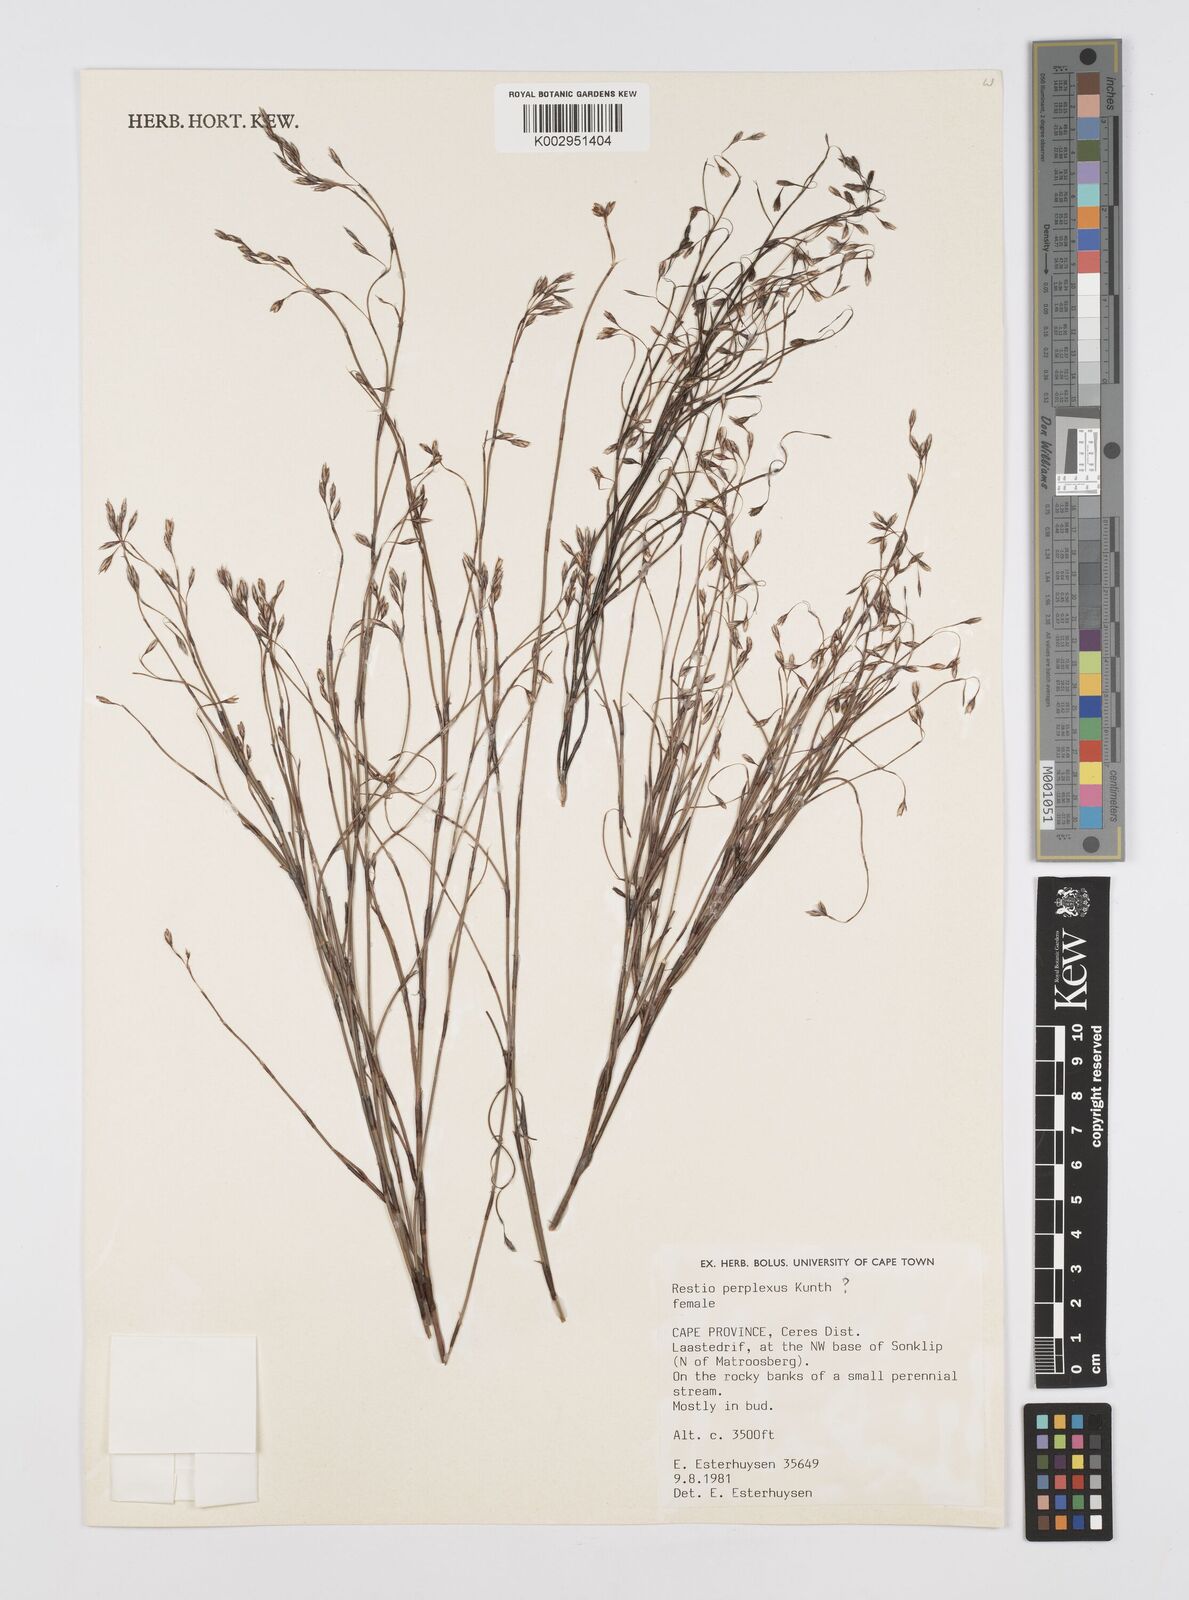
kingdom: Plantae
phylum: Tracheophyta
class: Liliopsida
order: Poales
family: Restionaceae
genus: Restio
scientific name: Restio perplexus
